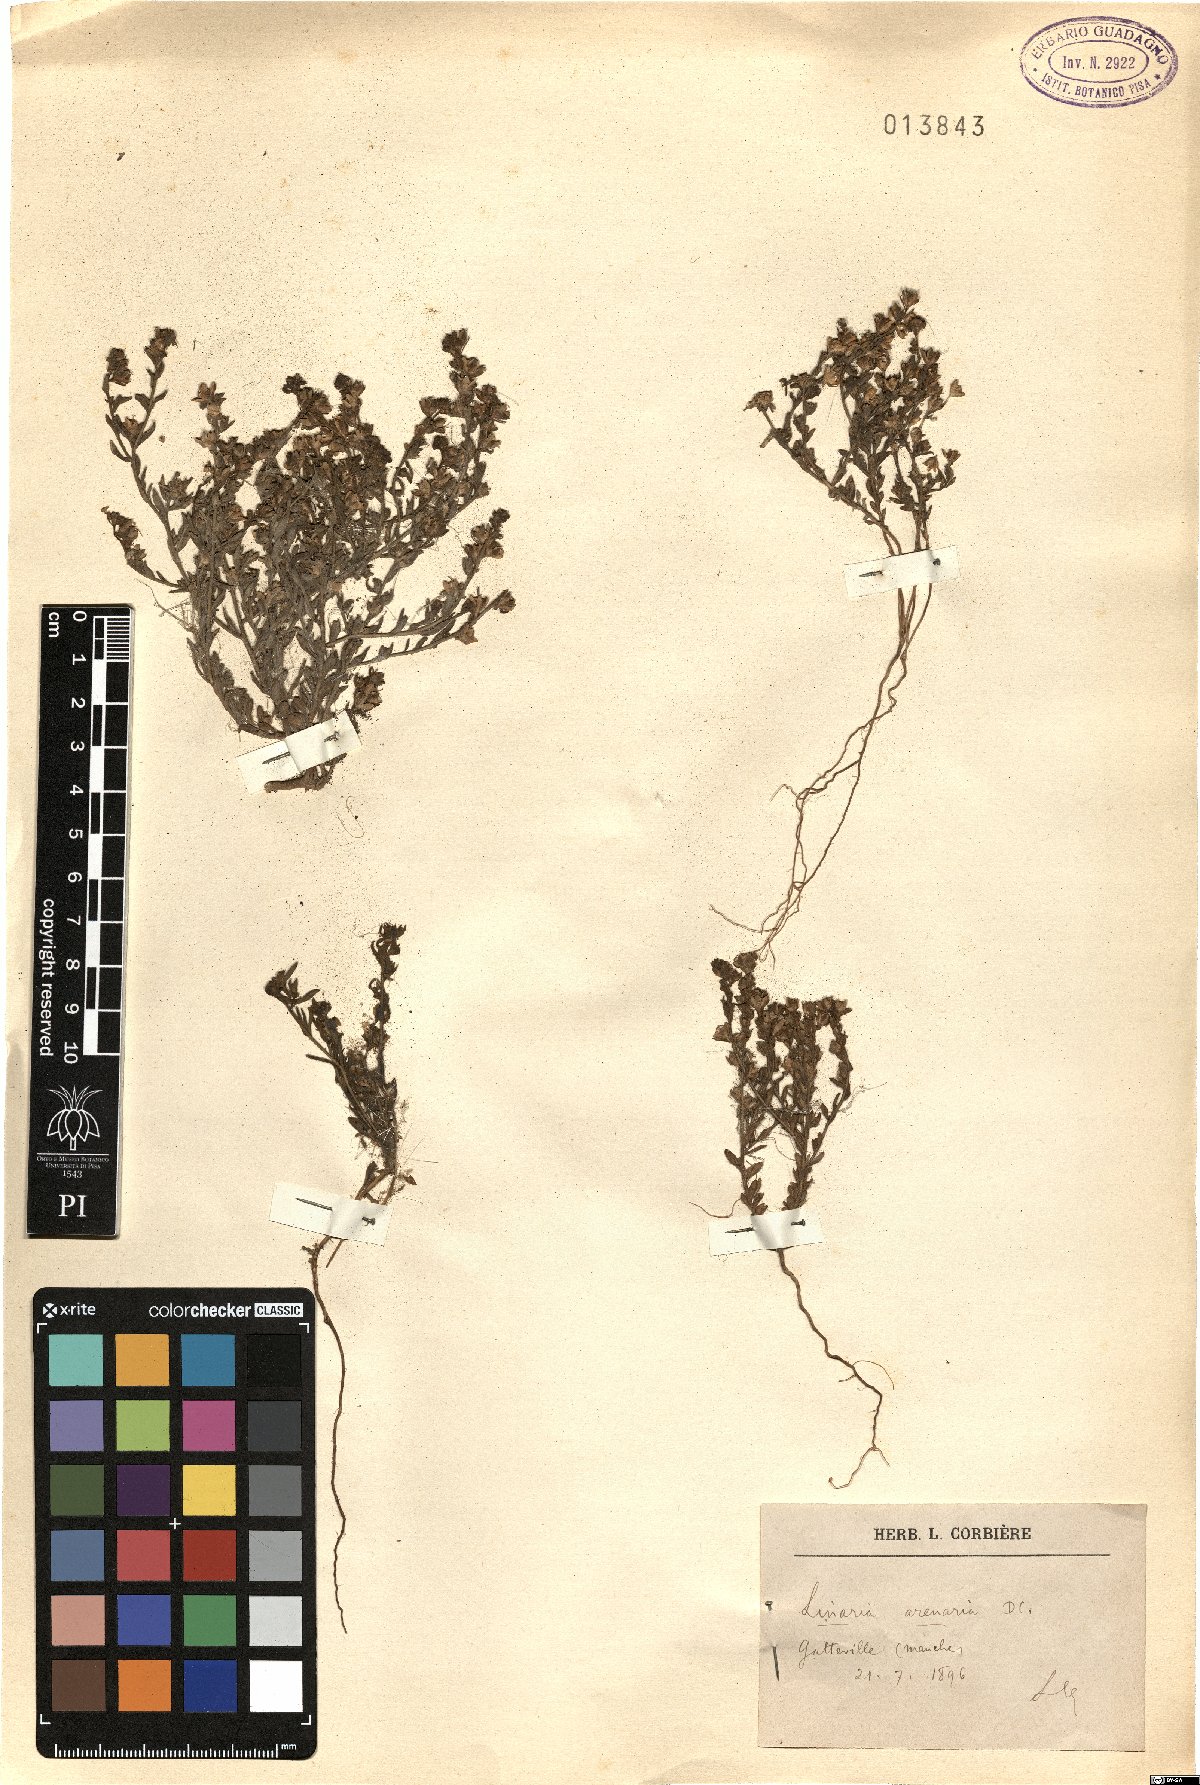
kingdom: Plantae
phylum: Tracheophyta
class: Magnoliopsida
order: Lamiales
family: Plantaginaceae
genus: Linaria
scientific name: Linaria arenaria
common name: Sand toadflax
